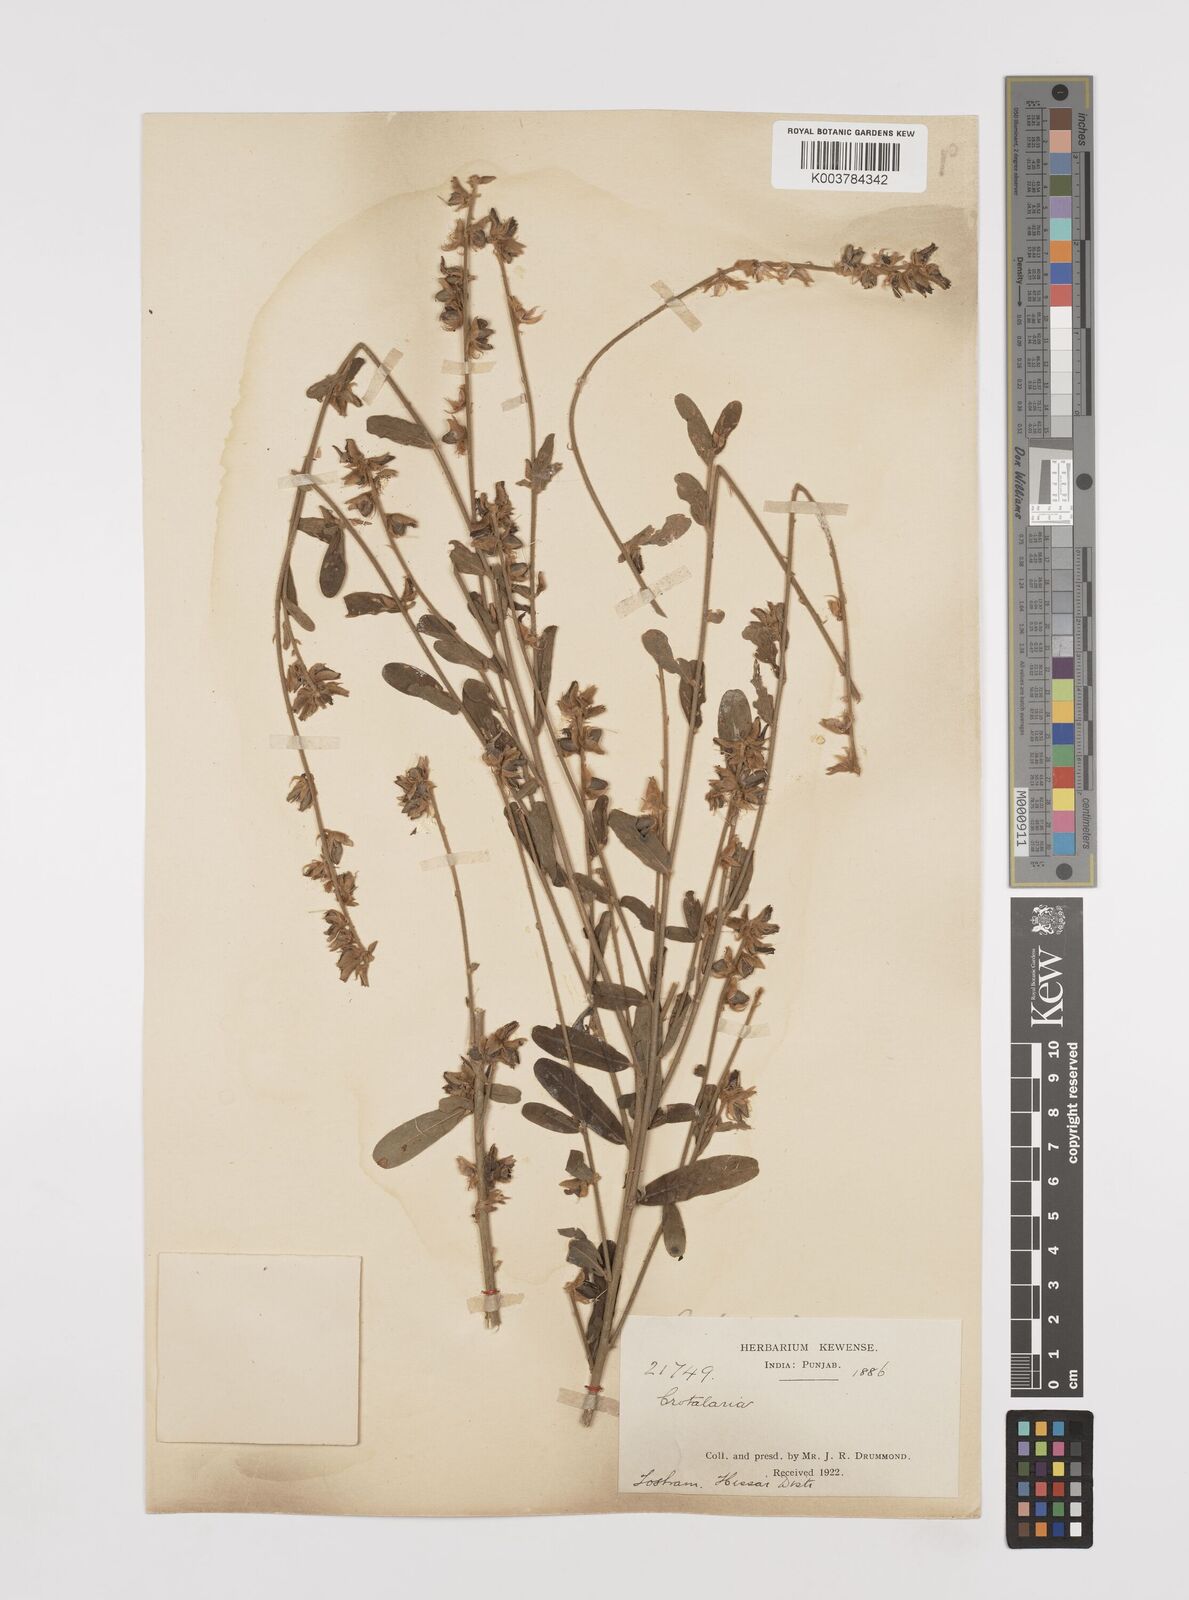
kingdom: Plantae
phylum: Tracheophyta
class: Magnoliopsida
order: Fabales
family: Fabaceae
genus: Crotalaria
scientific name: Crotalaria linifolia
